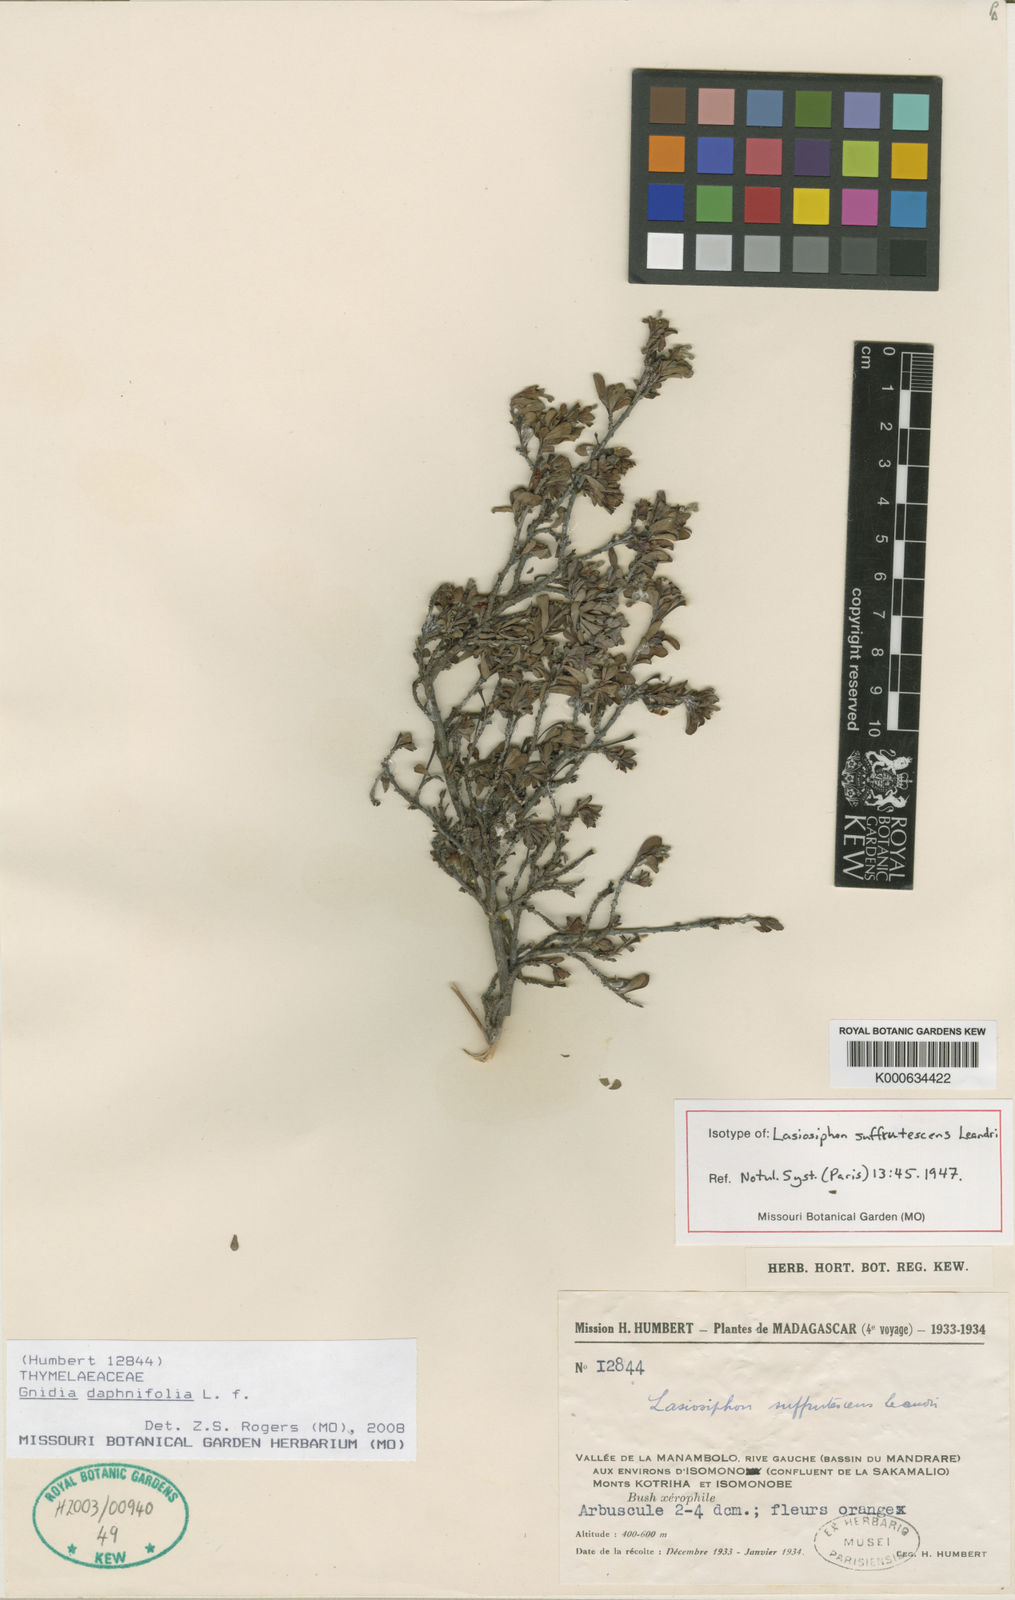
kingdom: Plantae
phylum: Tracheophyta
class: Magnoliopsida
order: Malvales
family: Thymelaeaceae
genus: Gnidia
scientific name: Gnidia daphnifolia
